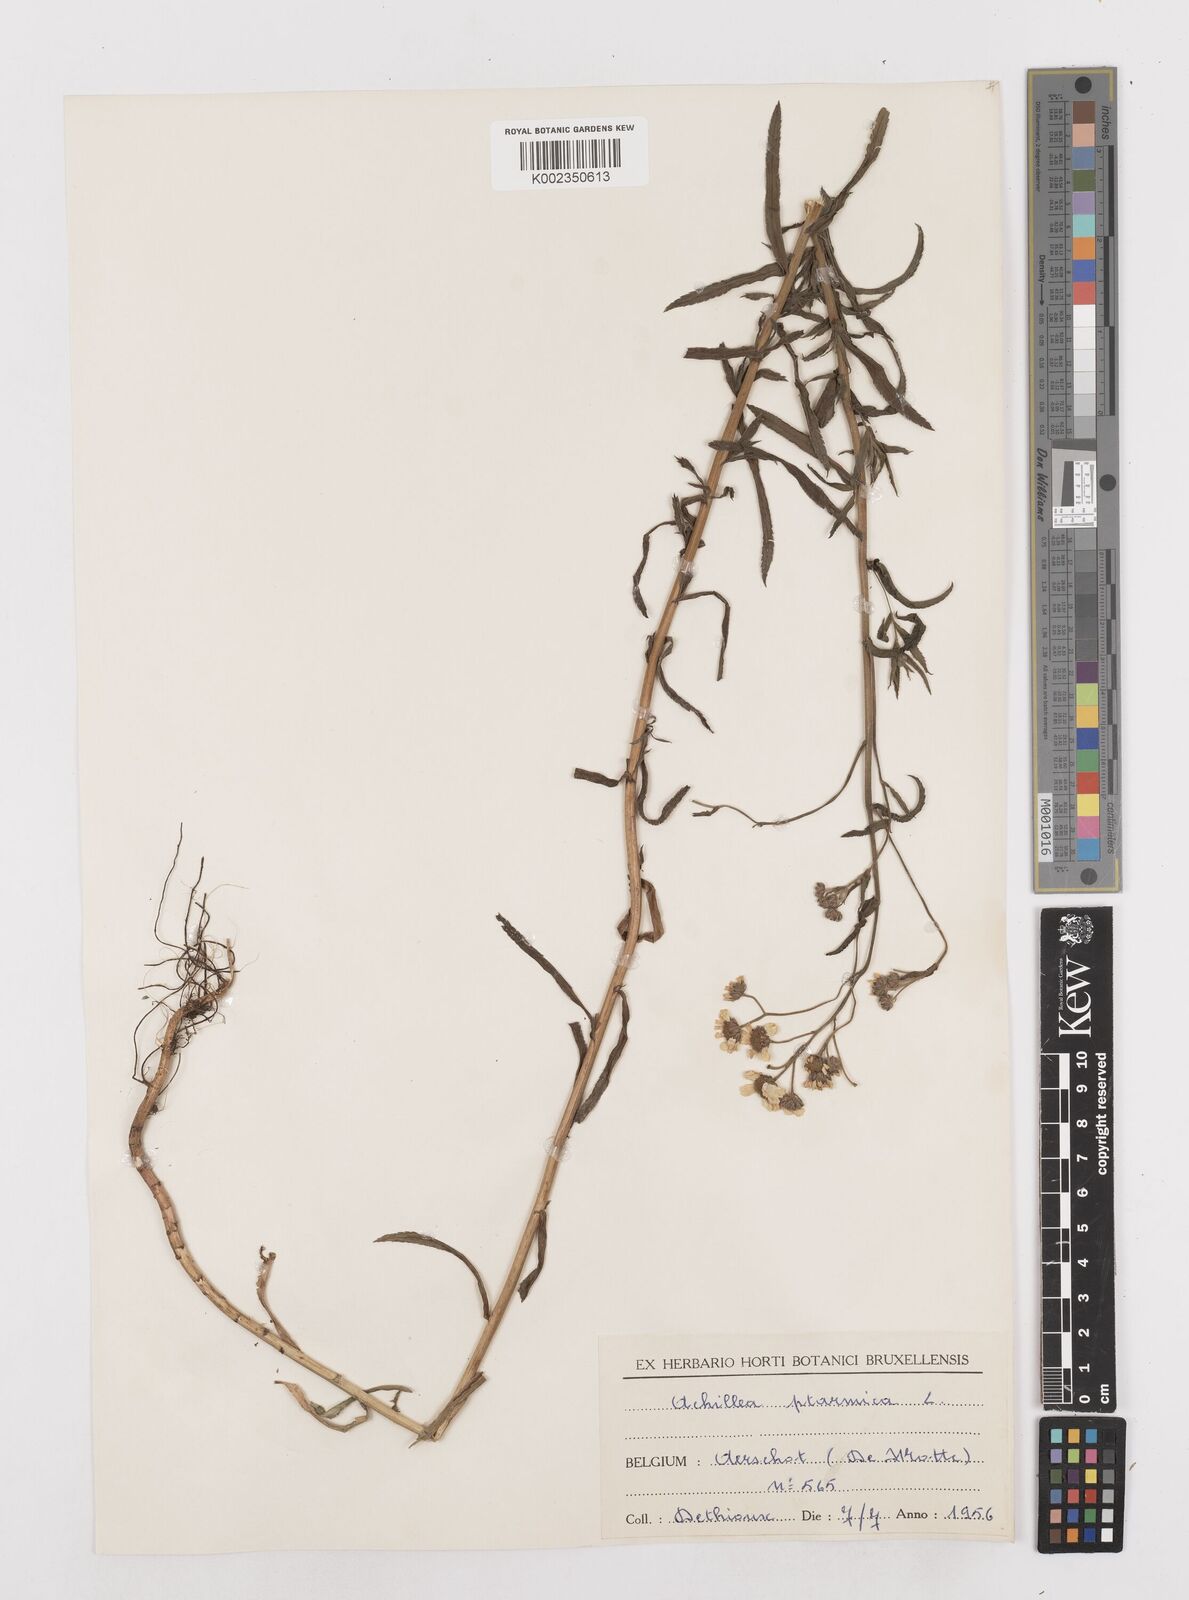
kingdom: Plantae
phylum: Tracheophyta
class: Magnoliopsida
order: Asterales
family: Asteraceae
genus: Achillea
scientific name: Achillea ptarmica
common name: Sneezeweed
